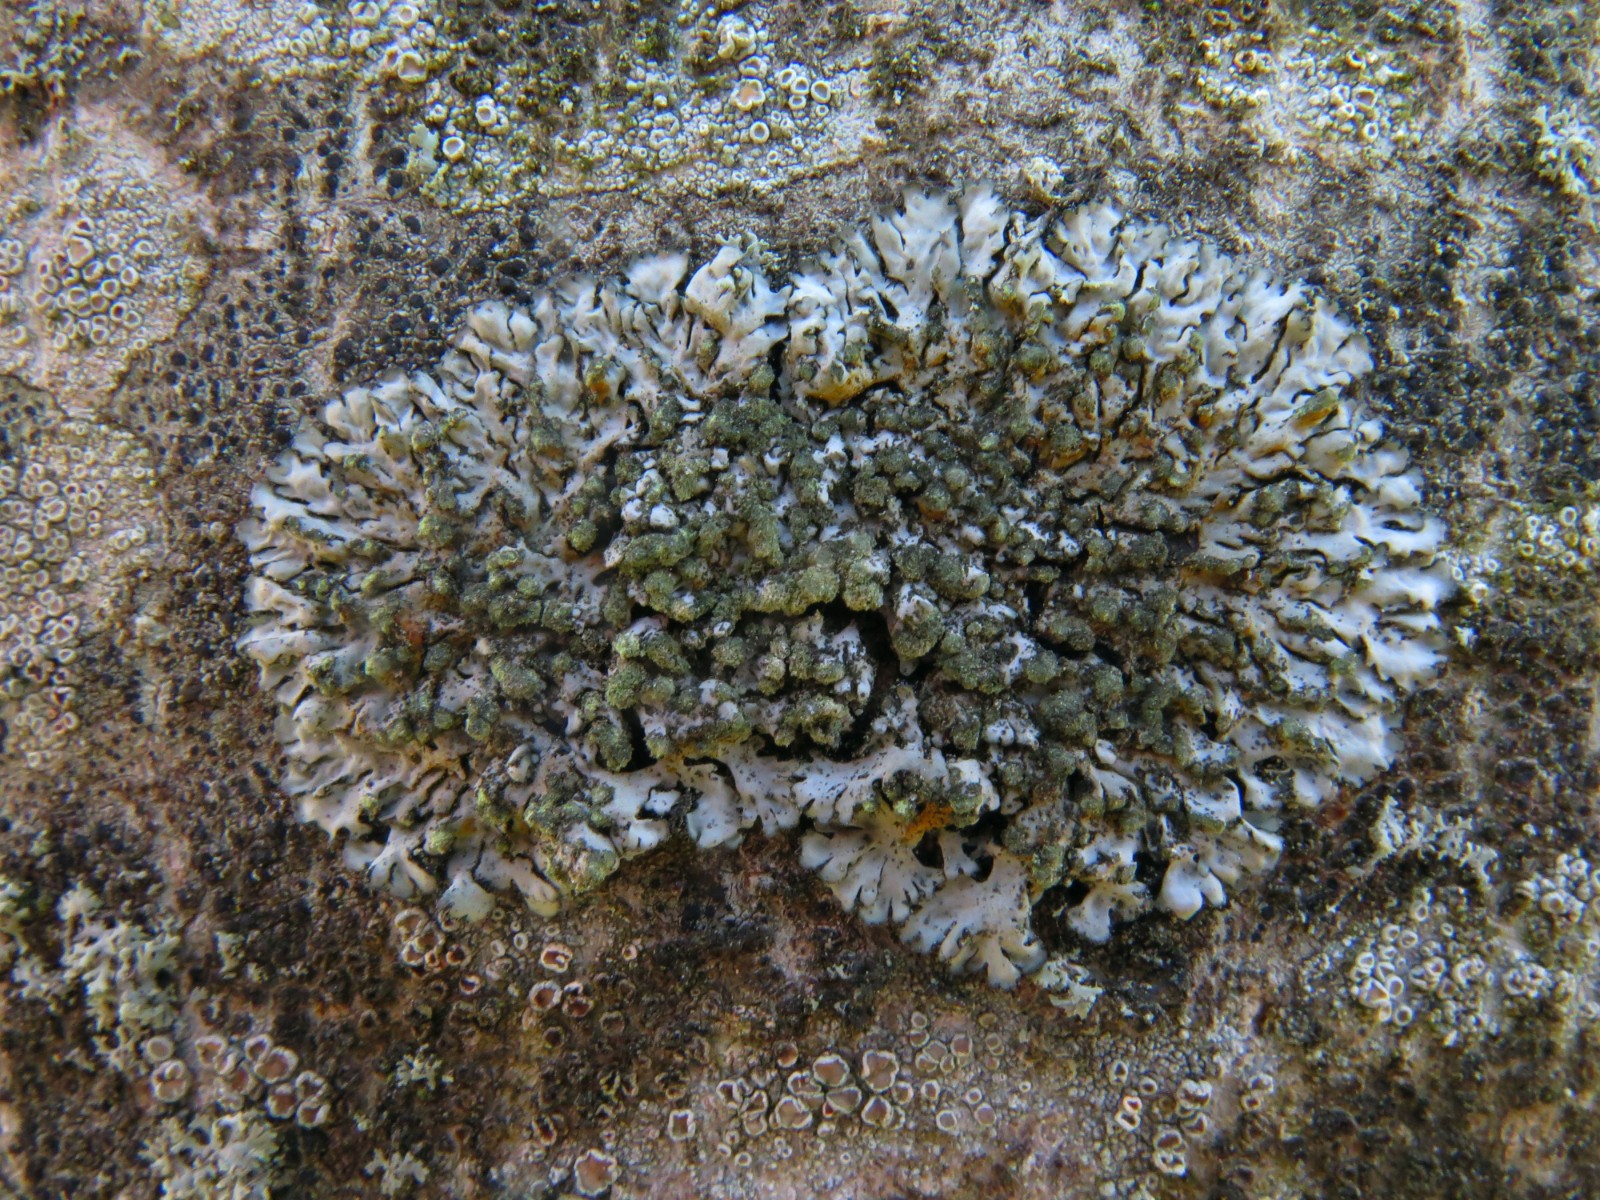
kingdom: Fungi
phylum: Ascomycota
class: Lecanoromycetes
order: Caliciales
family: Physciaceae
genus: Phaeophyscia
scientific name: Phaeophyscia orbicularis
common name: grågrøn rosetlav
